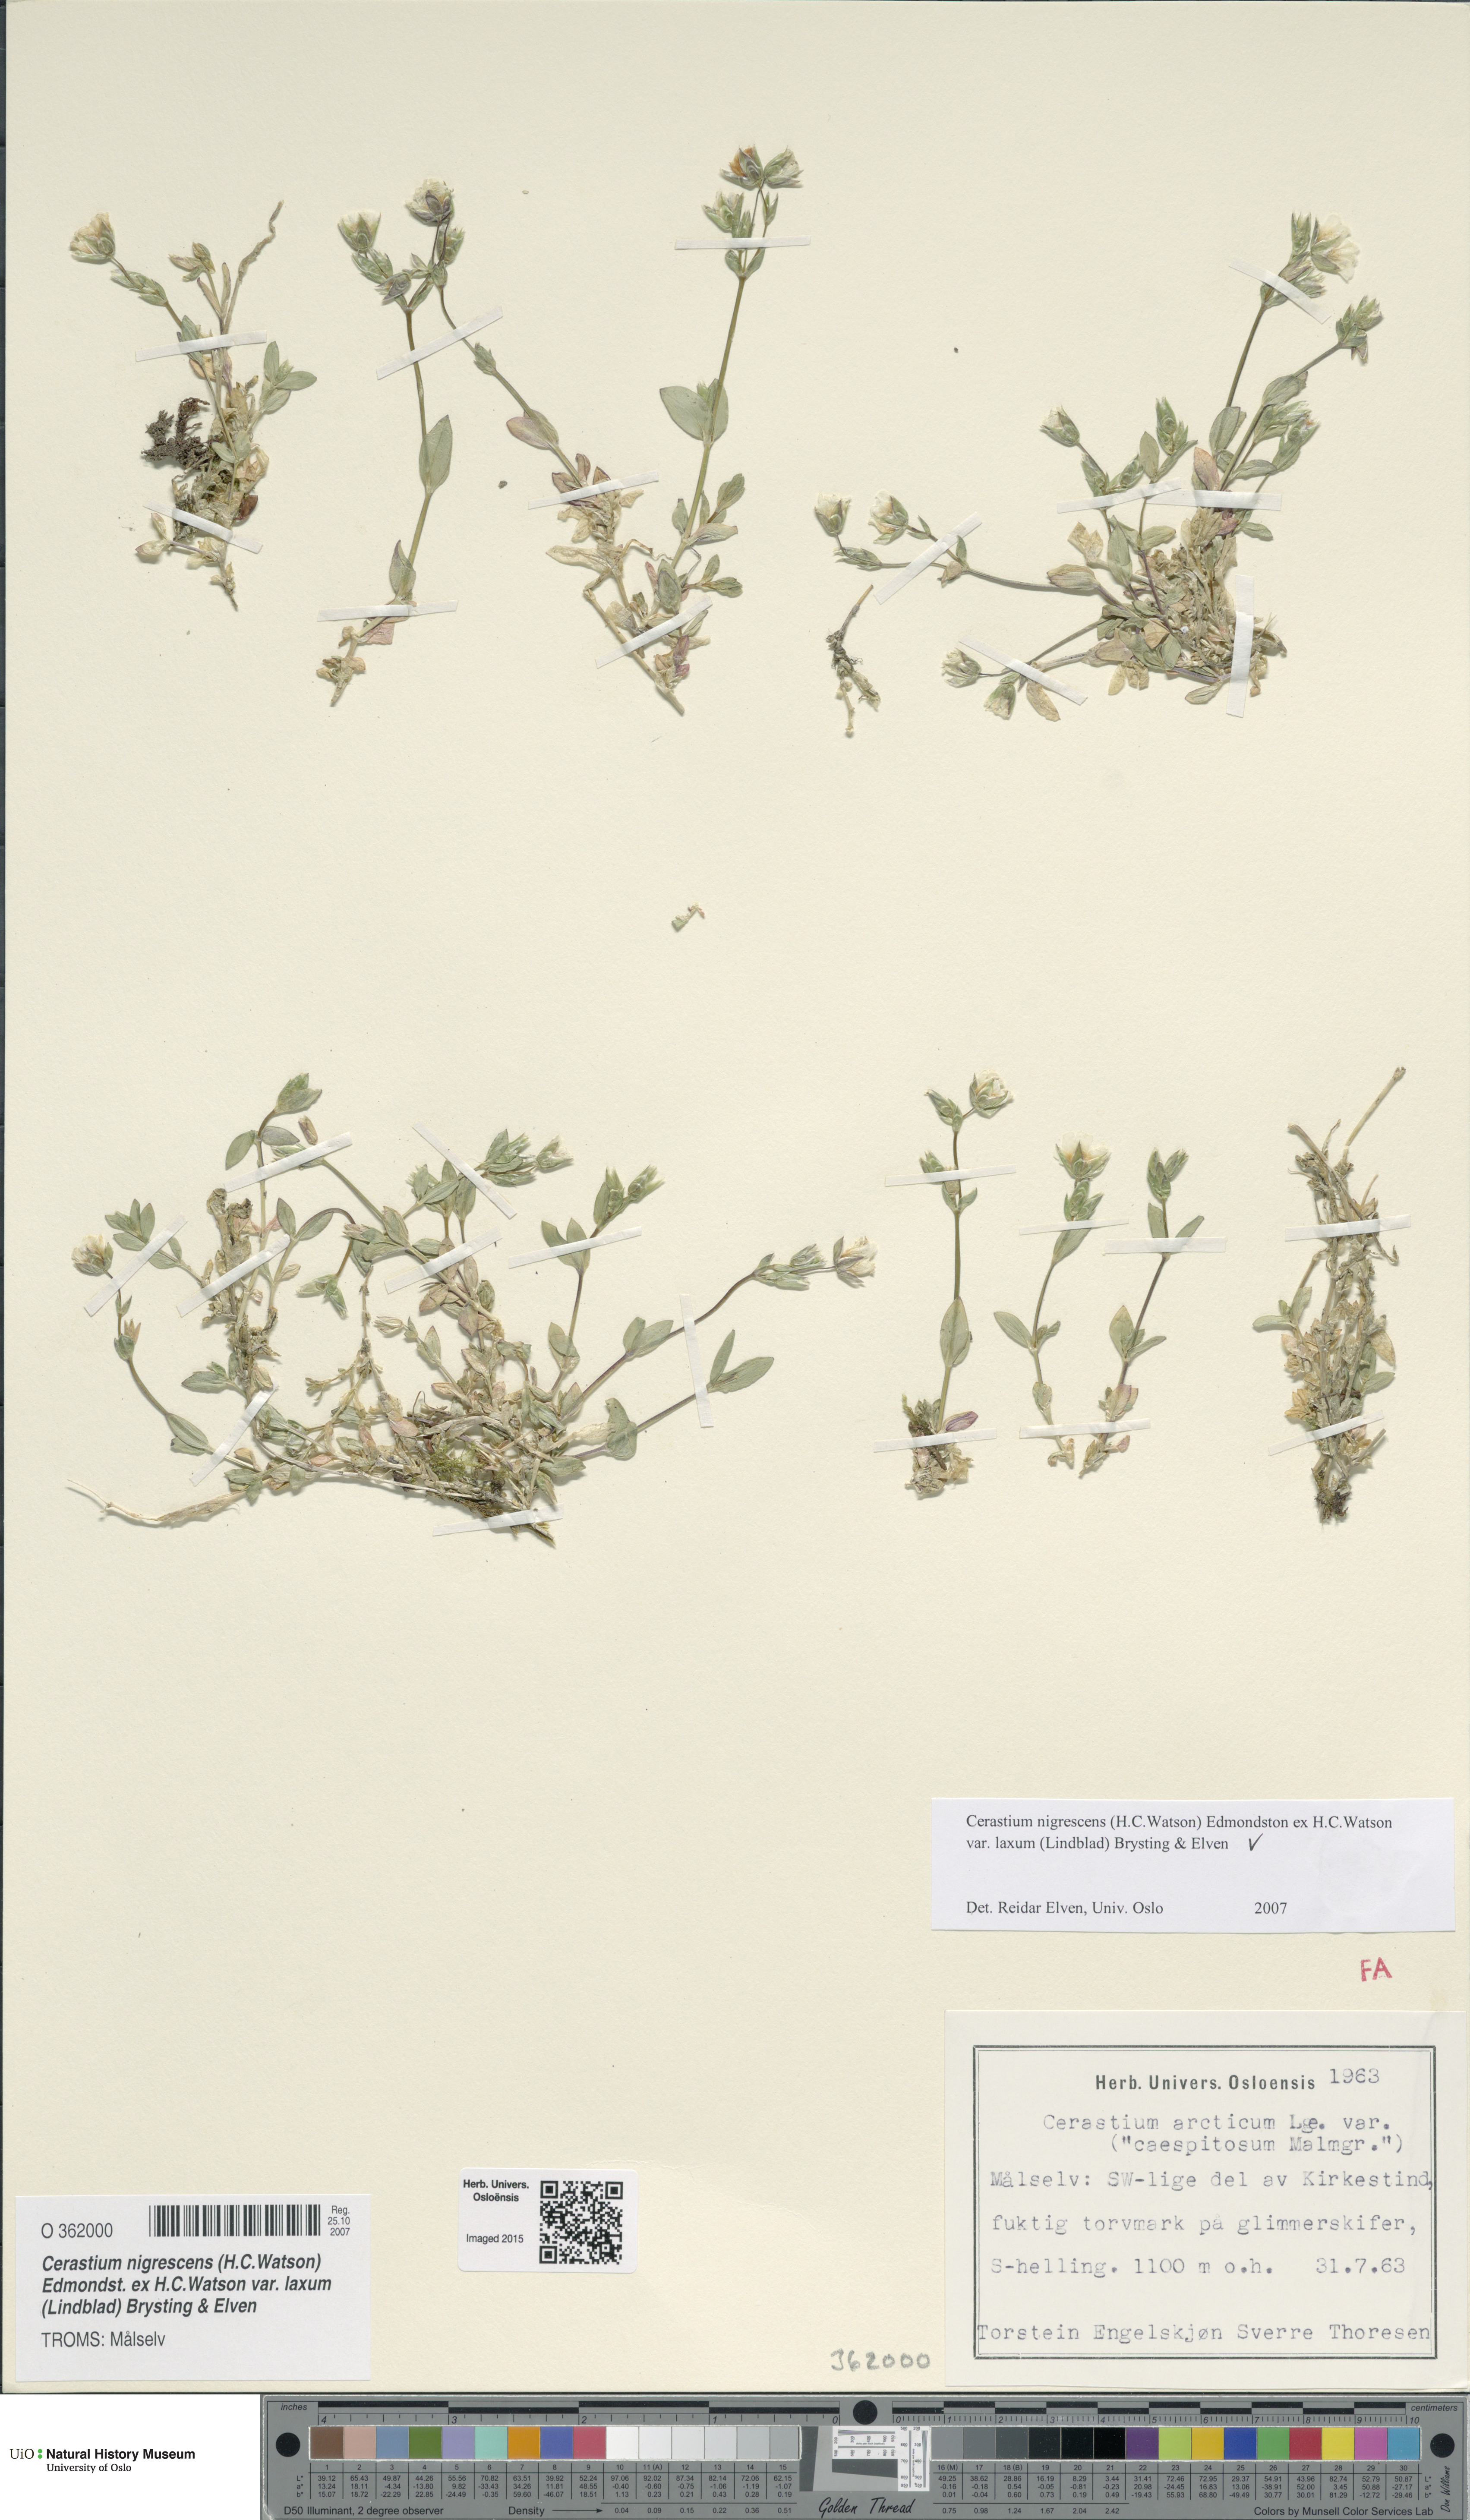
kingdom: Plantae
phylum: Tracheophyta
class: Magnoliopsida
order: Caryophyllales
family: Caryophyllaceae
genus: Cerastium
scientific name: Cerastium nigrescens
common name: Shetland mouse-ear
